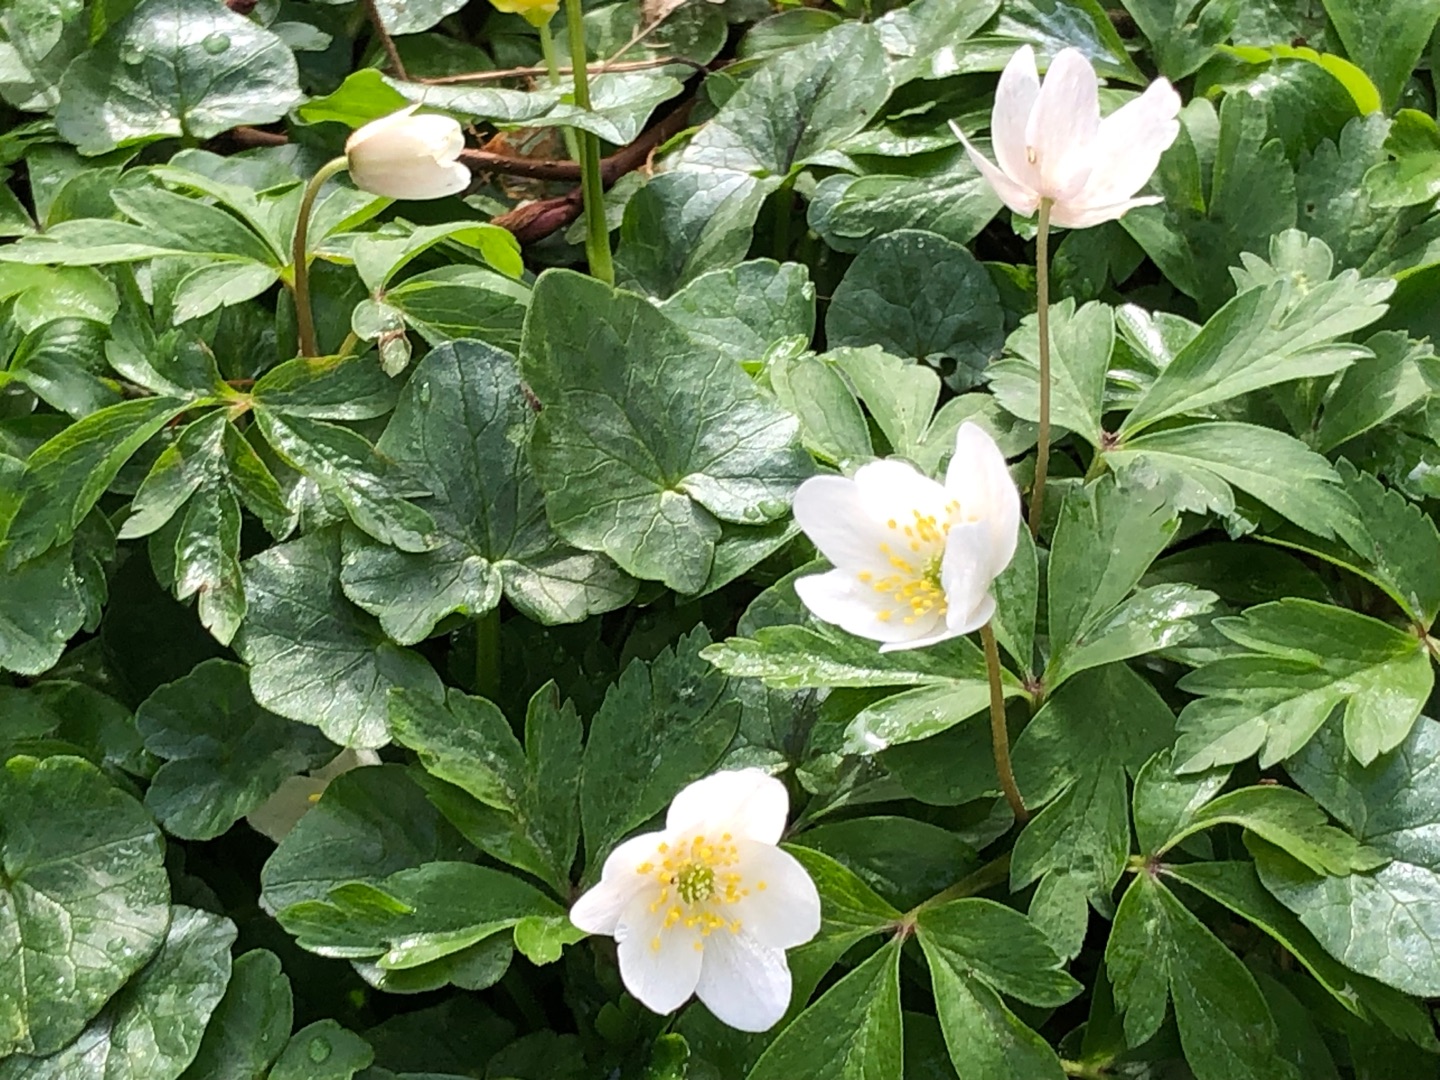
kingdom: Plantae
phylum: Tracheophyta
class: Magnoliopsida
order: Ranunculales
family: Ranunculaceae
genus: Anemone
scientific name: Anemone nemorosa
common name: Hvid anemone
